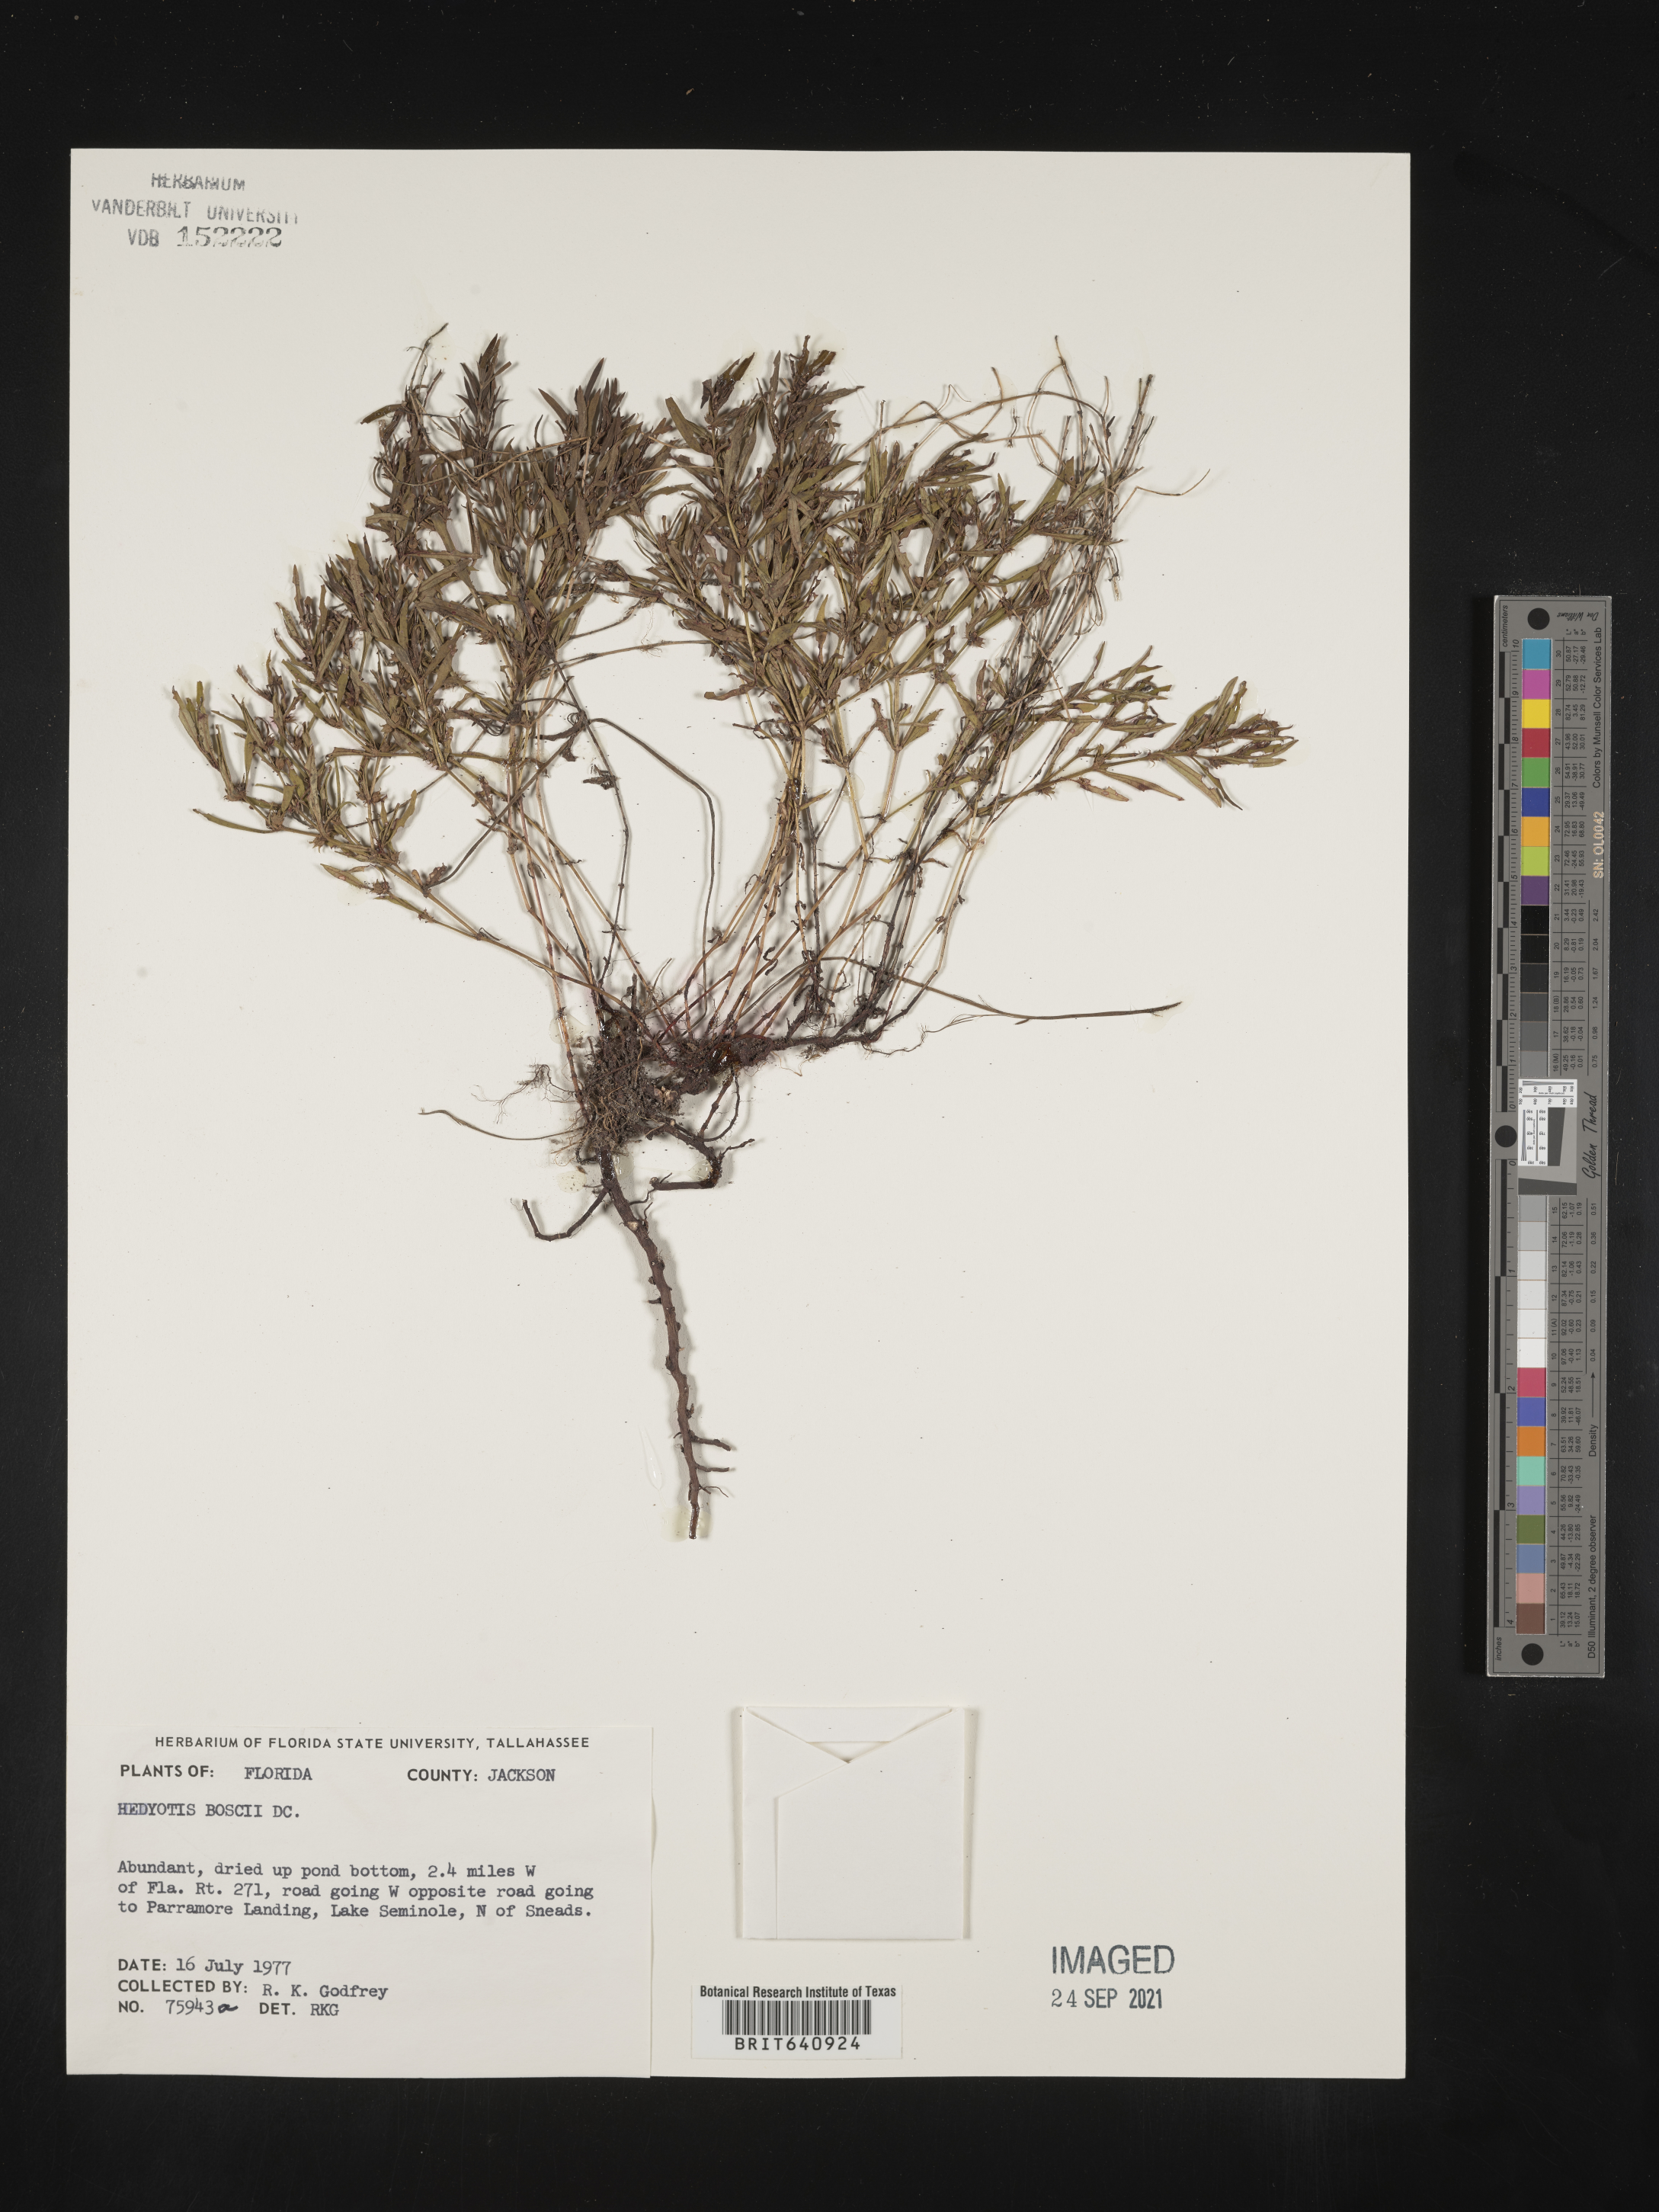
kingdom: Plantae
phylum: Tracheophyta
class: Magnoliopsida
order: Gentianales
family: Rubiaceae
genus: Oldenlandia
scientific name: Oldenlandia boscii
